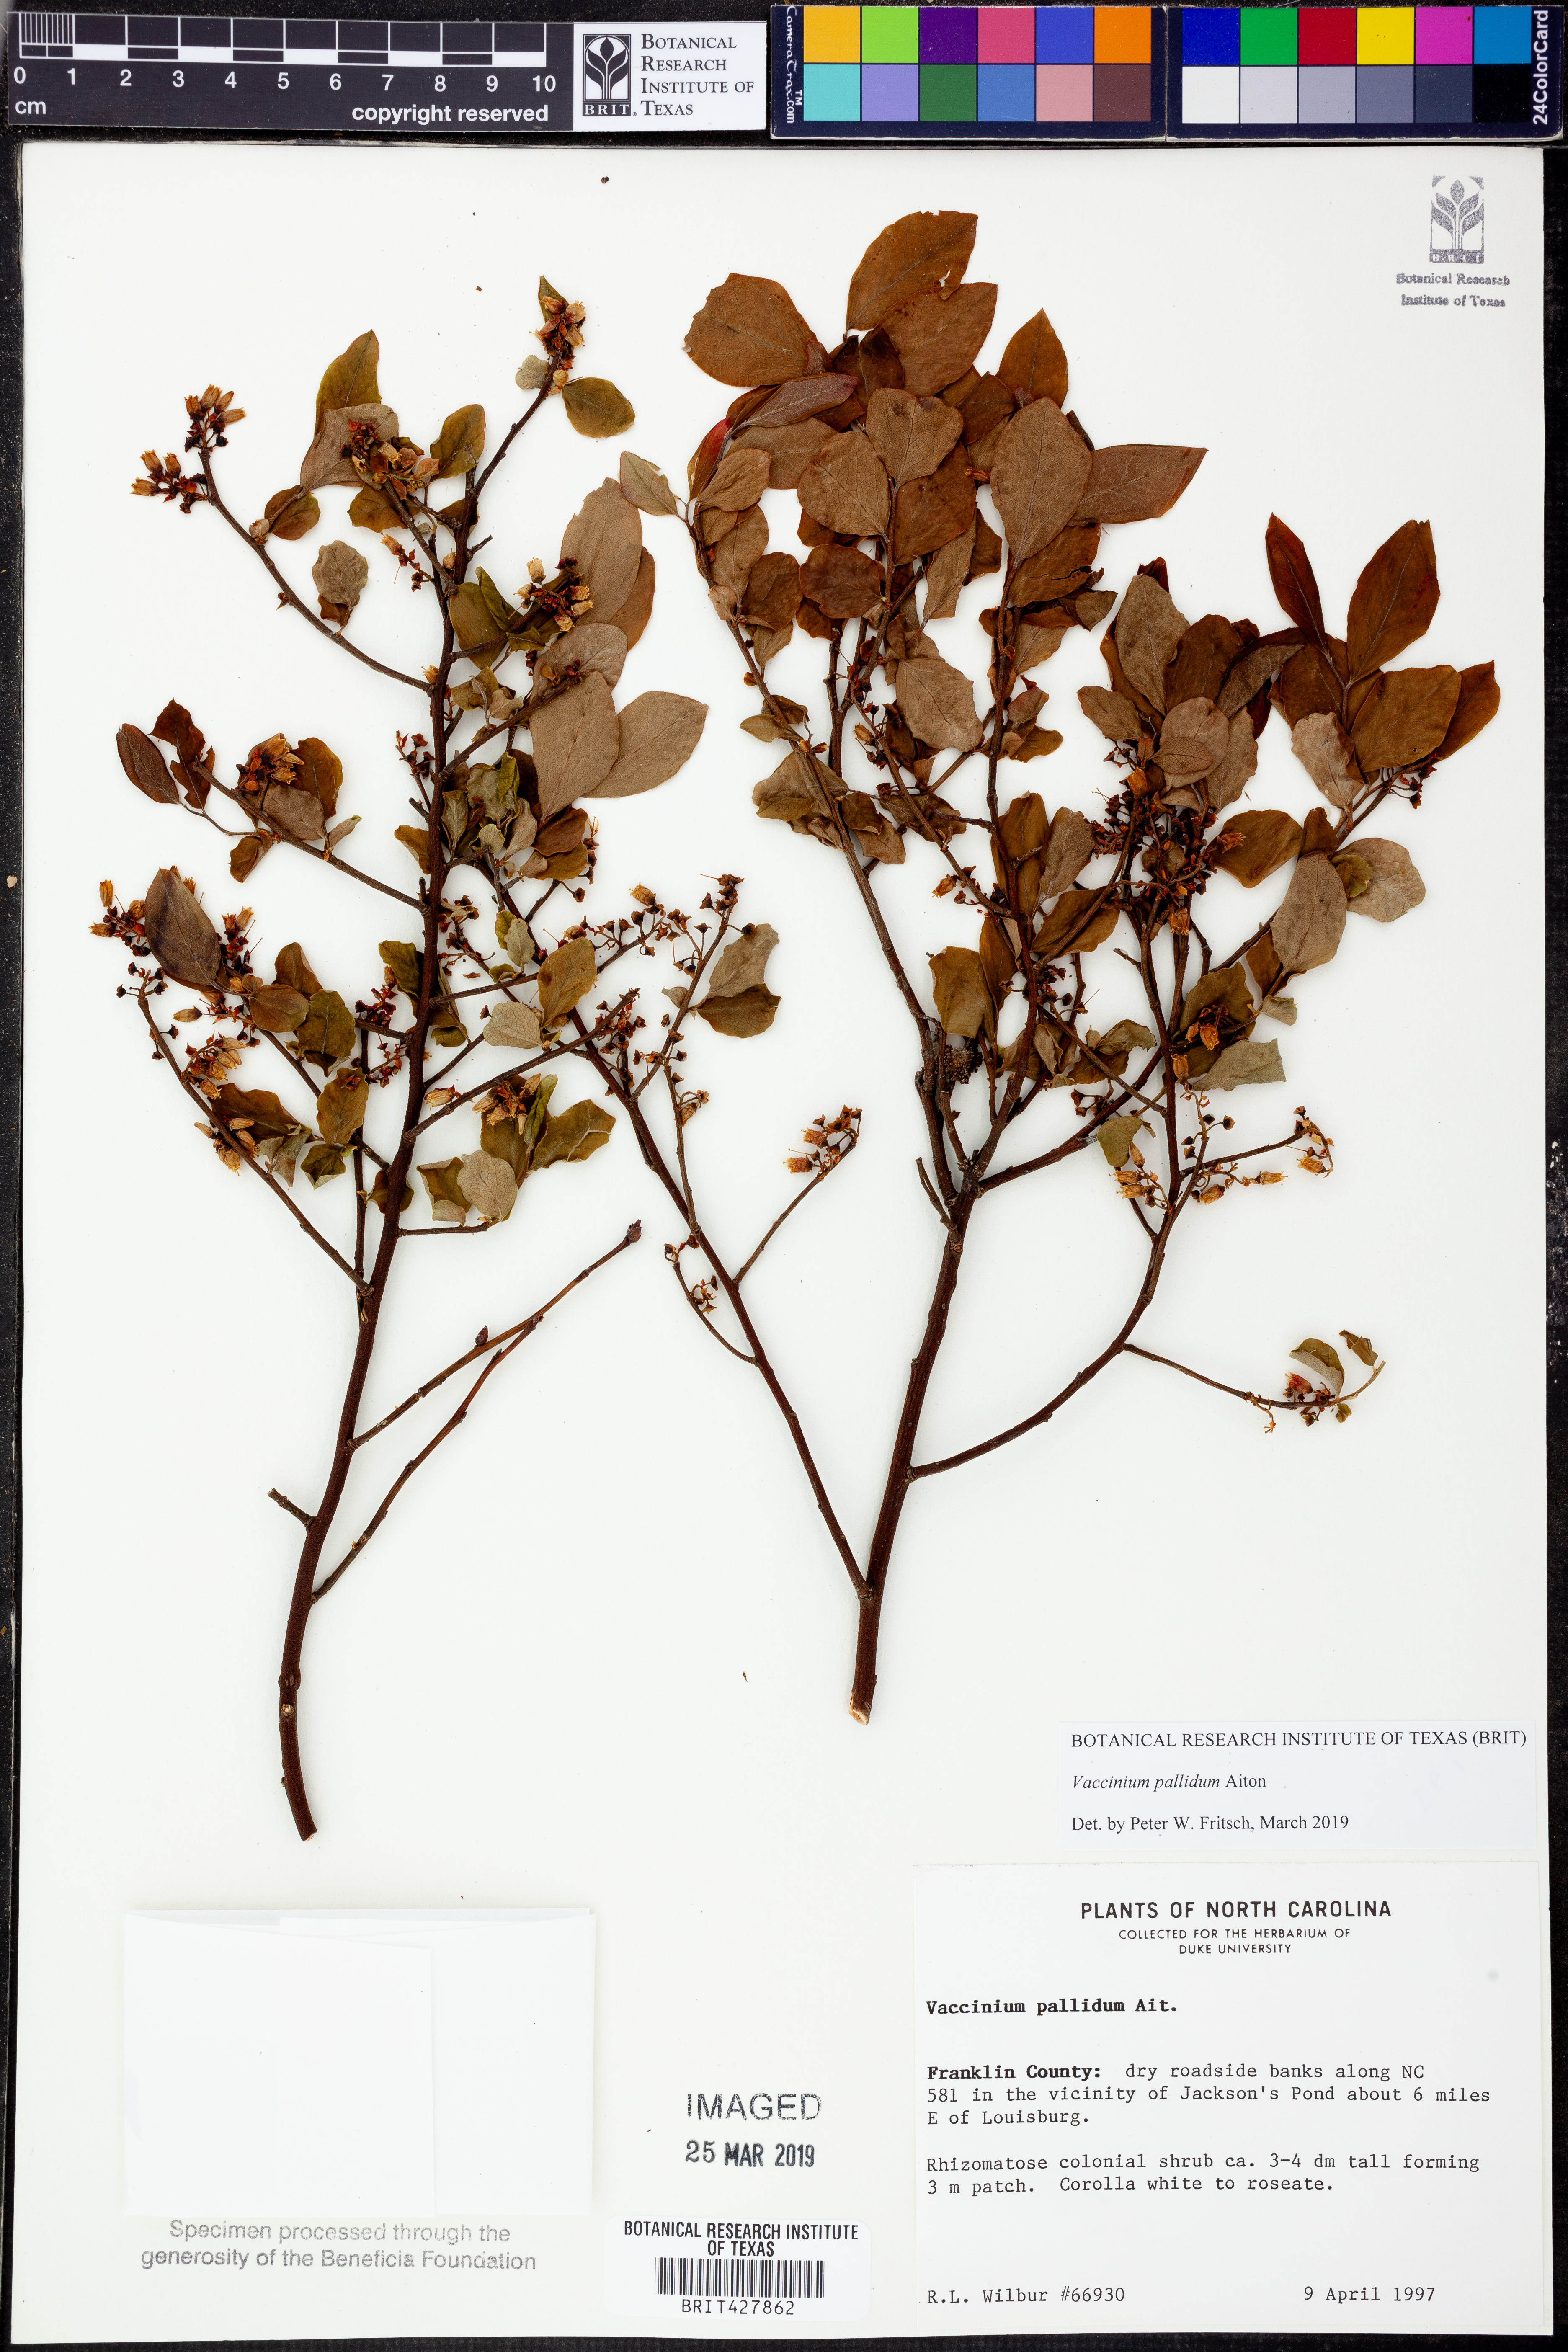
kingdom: Plantae
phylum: Tracheophyta
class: Magnoliopsida
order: Ericales
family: Ericaceae
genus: Vaccinium
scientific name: Vaccinium pallidum
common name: Blue ridge blueberry
